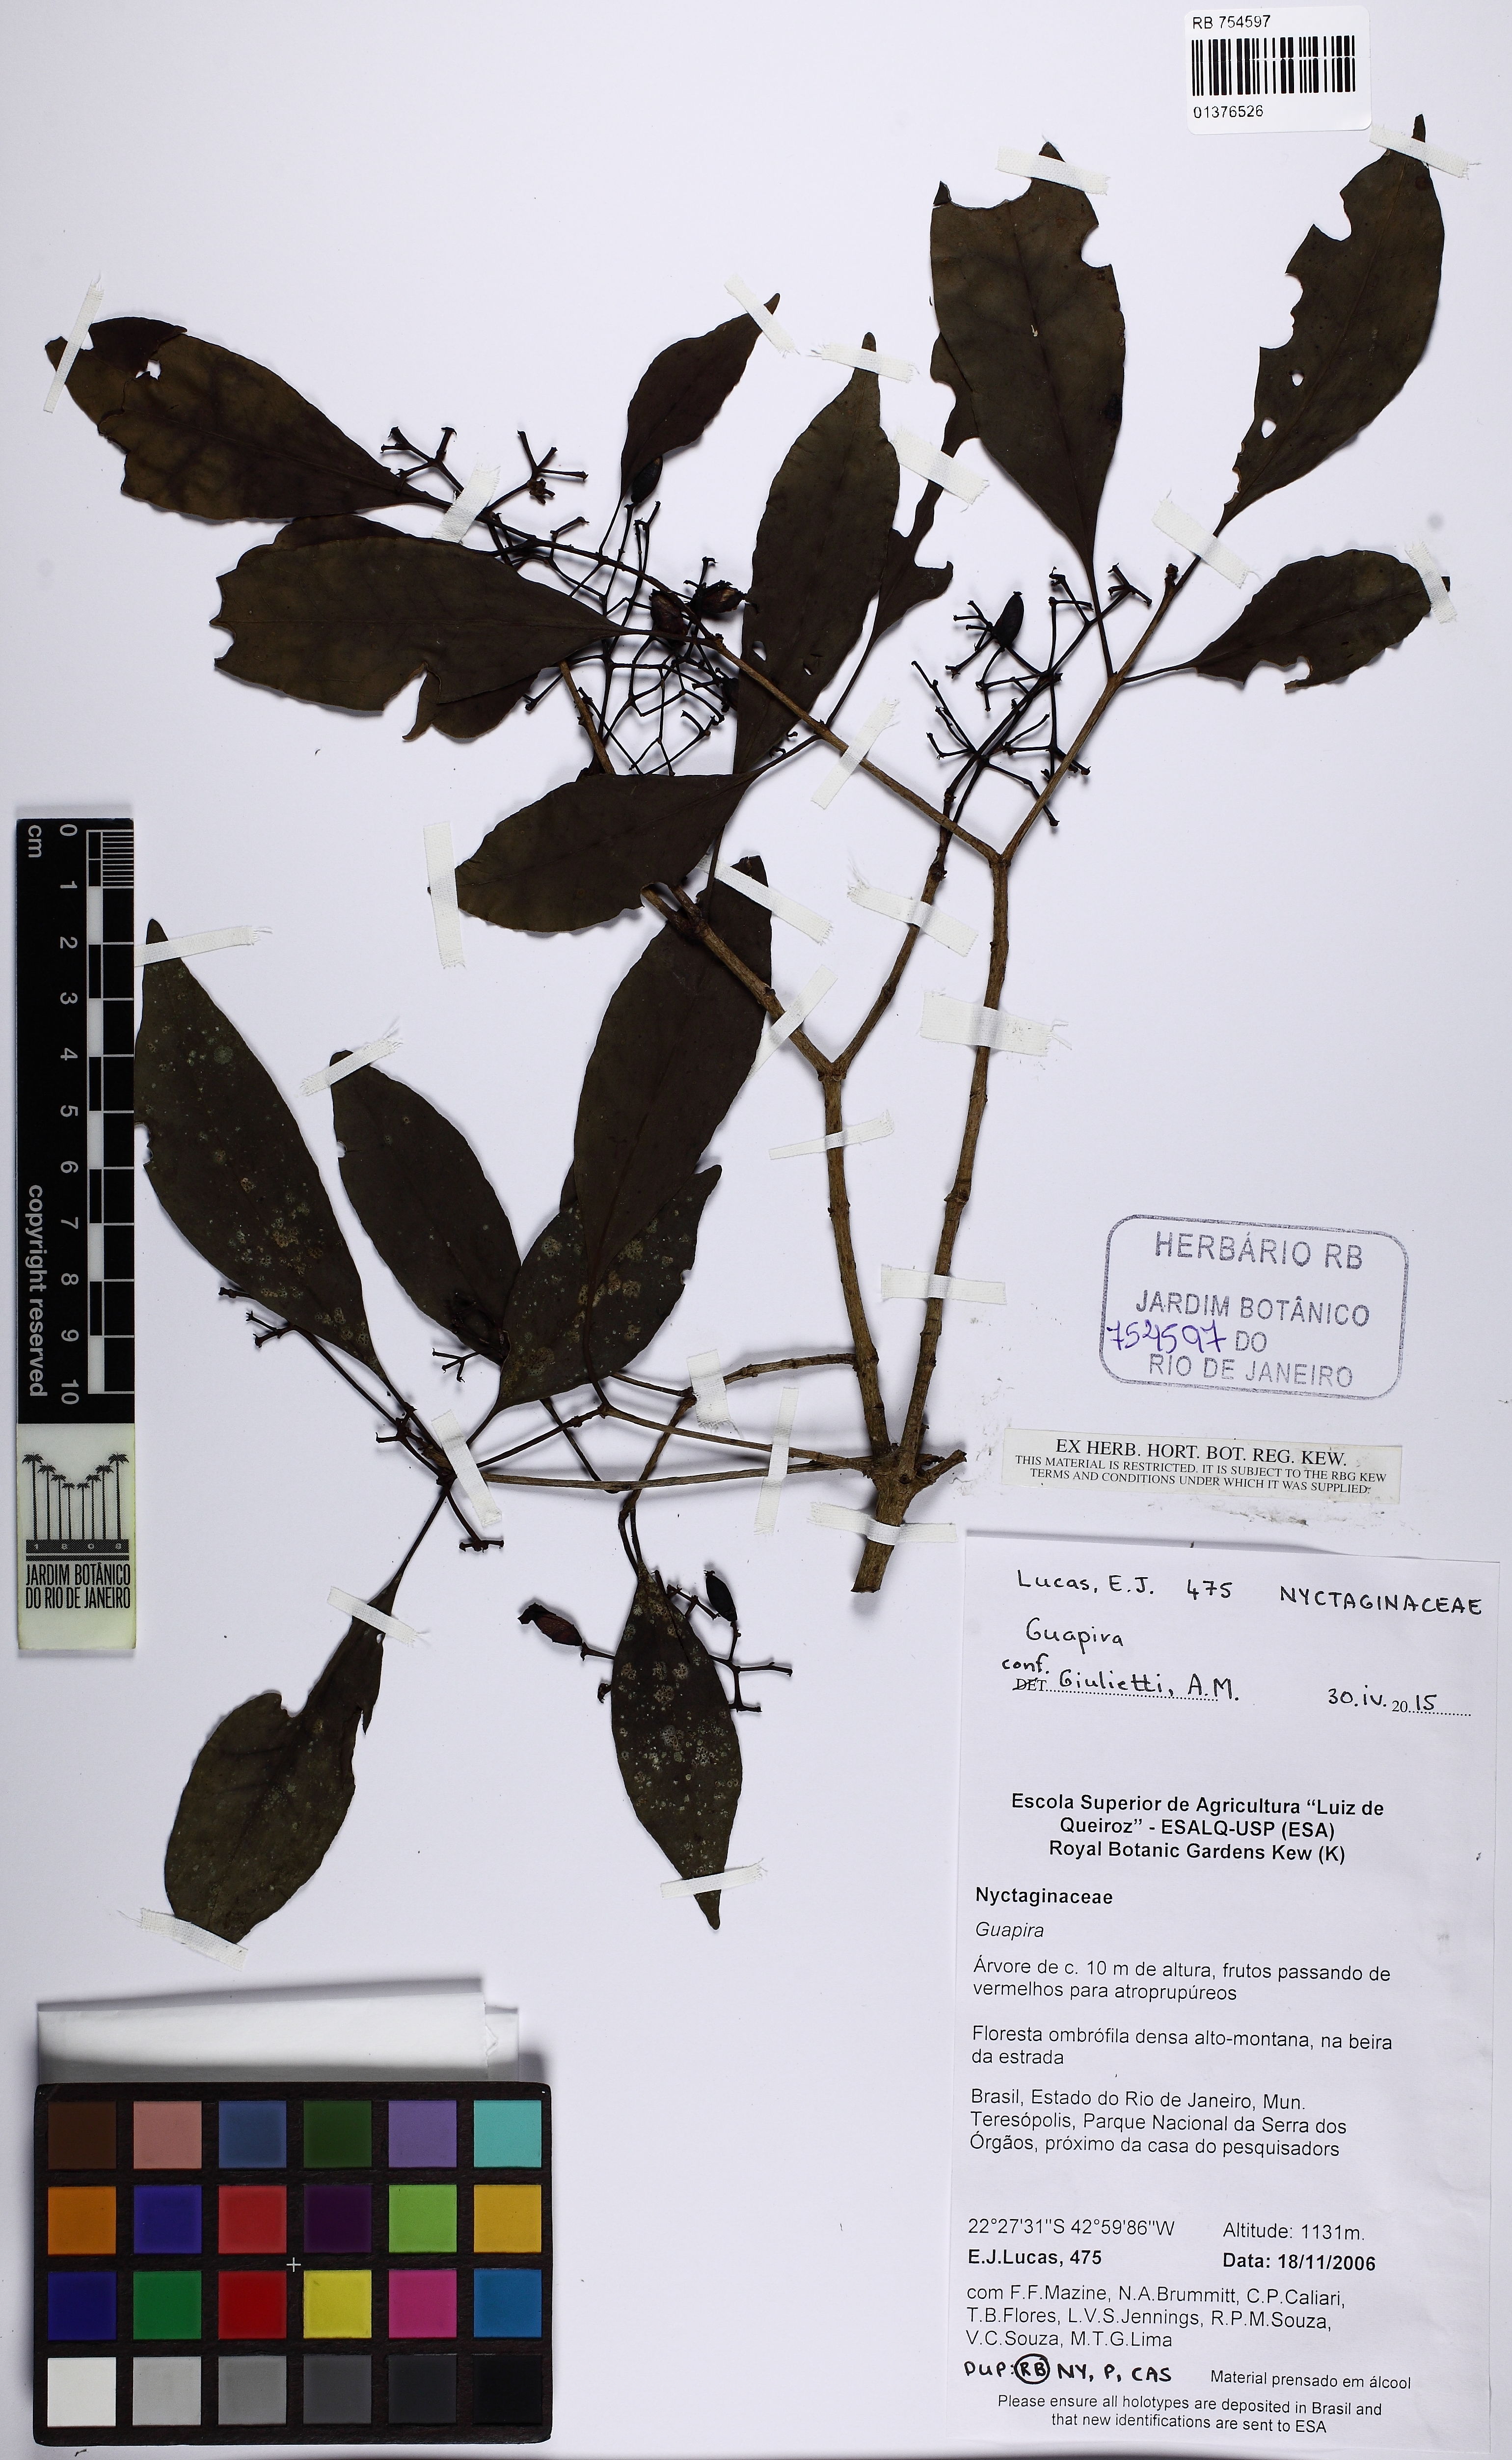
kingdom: Plantae
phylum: Tracheophyta
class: Magnoliopsida
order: Caryophyllales
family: Nyctaginaceae
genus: Guapira
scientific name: Guapira
